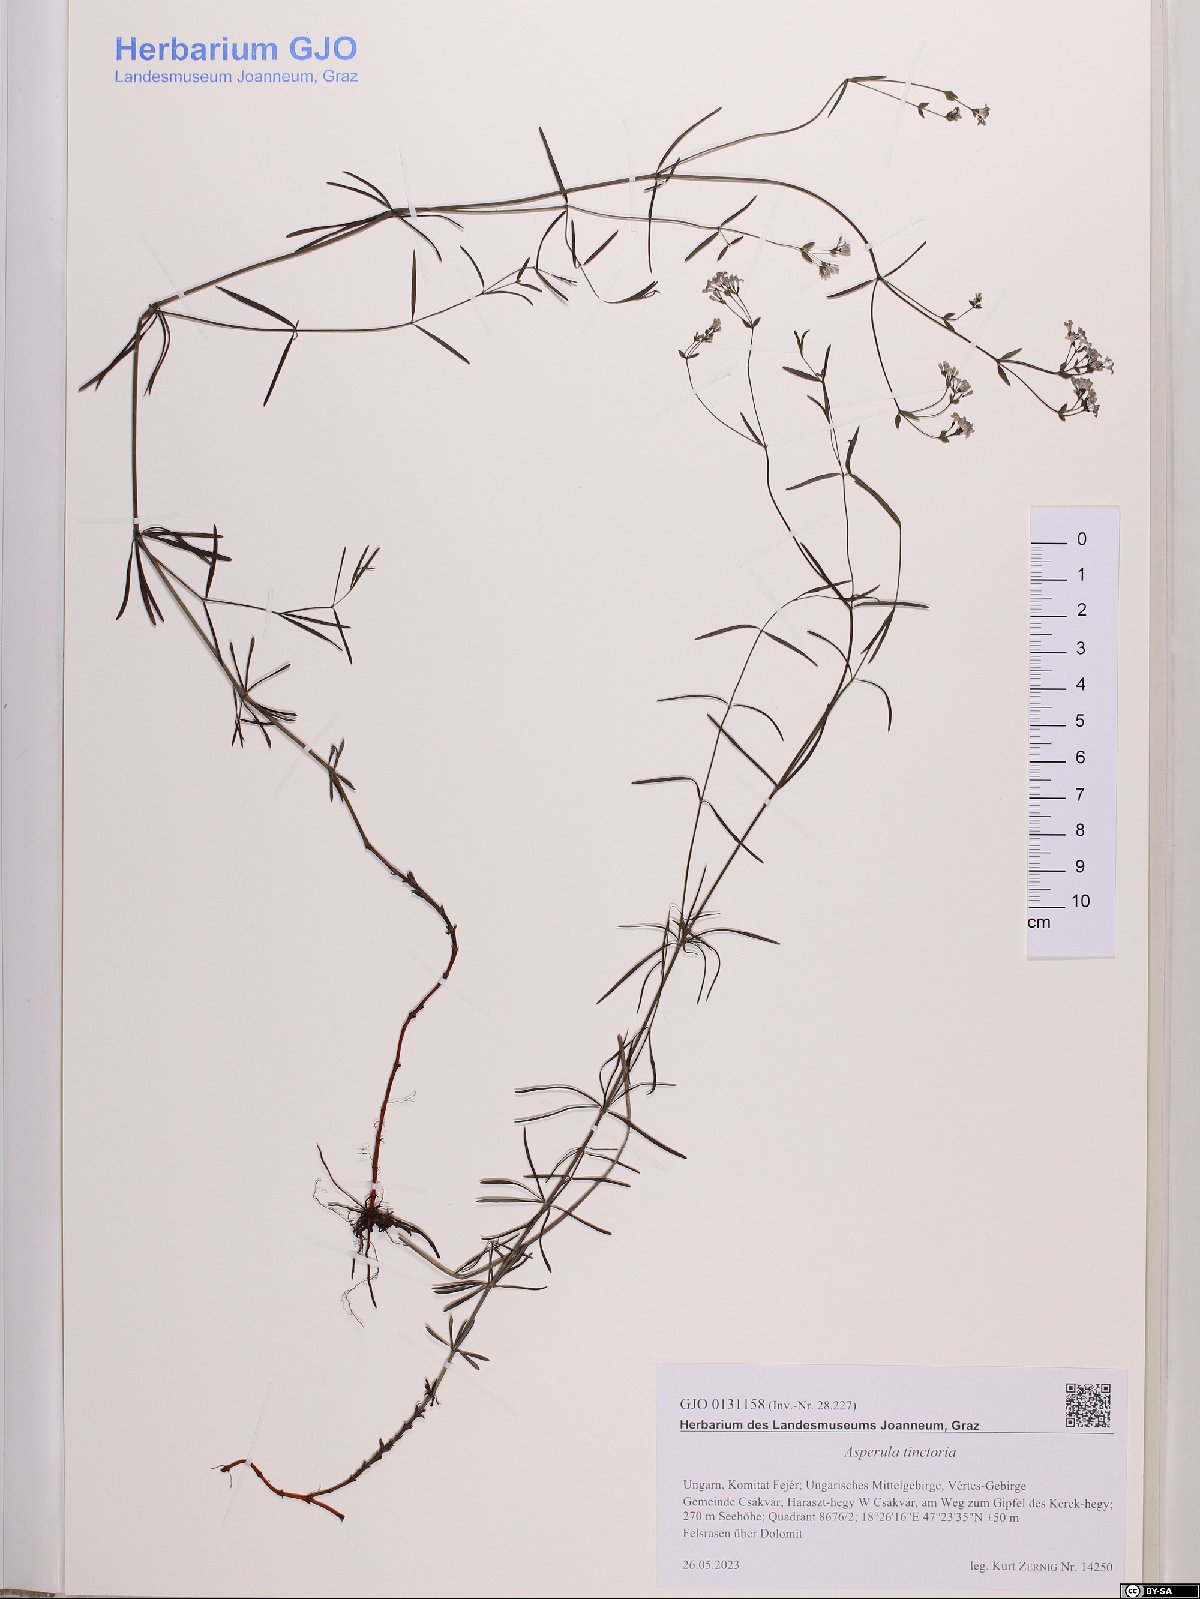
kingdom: Plantae
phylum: Tracheophyta
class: Magnoliopsida
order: Gentianales
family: Rubiaceae
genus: Asperula
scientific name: Asperula tinctoria
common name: Dyer's woodruff
